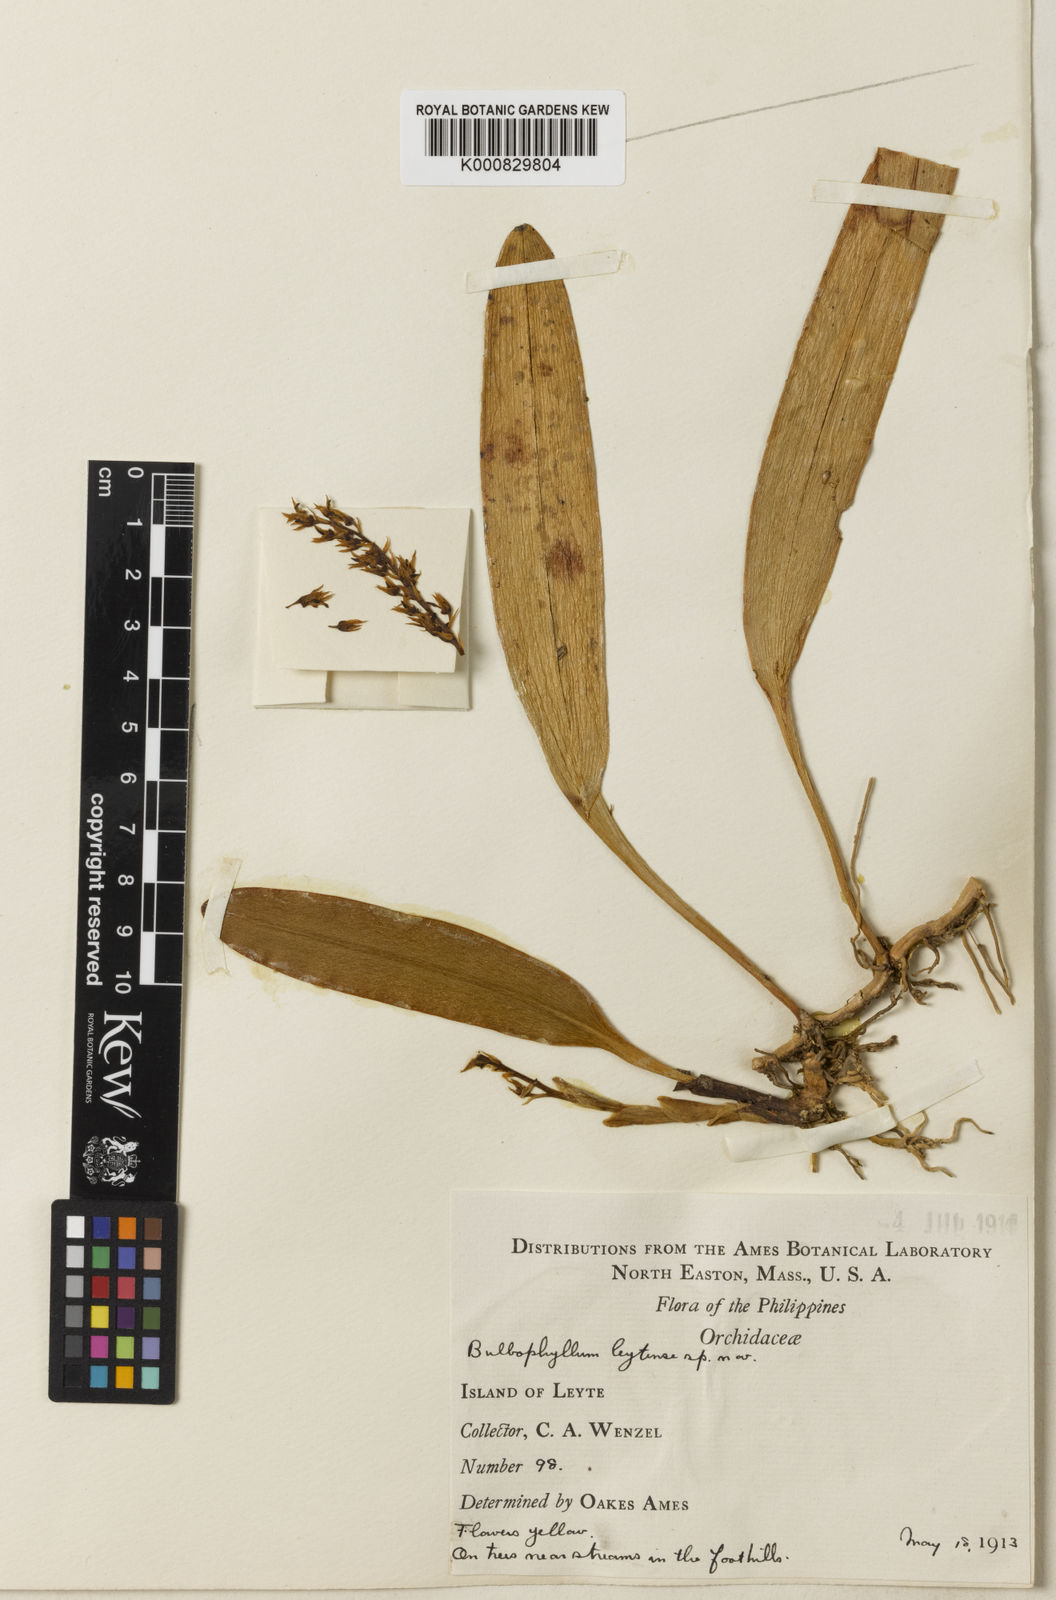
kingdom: Plantae
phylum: Tracheophyta
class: Liliopsida
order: Asparagales
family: Orchidaceae
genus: Bulbophyllum
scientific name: Bulbophyllum leytense
